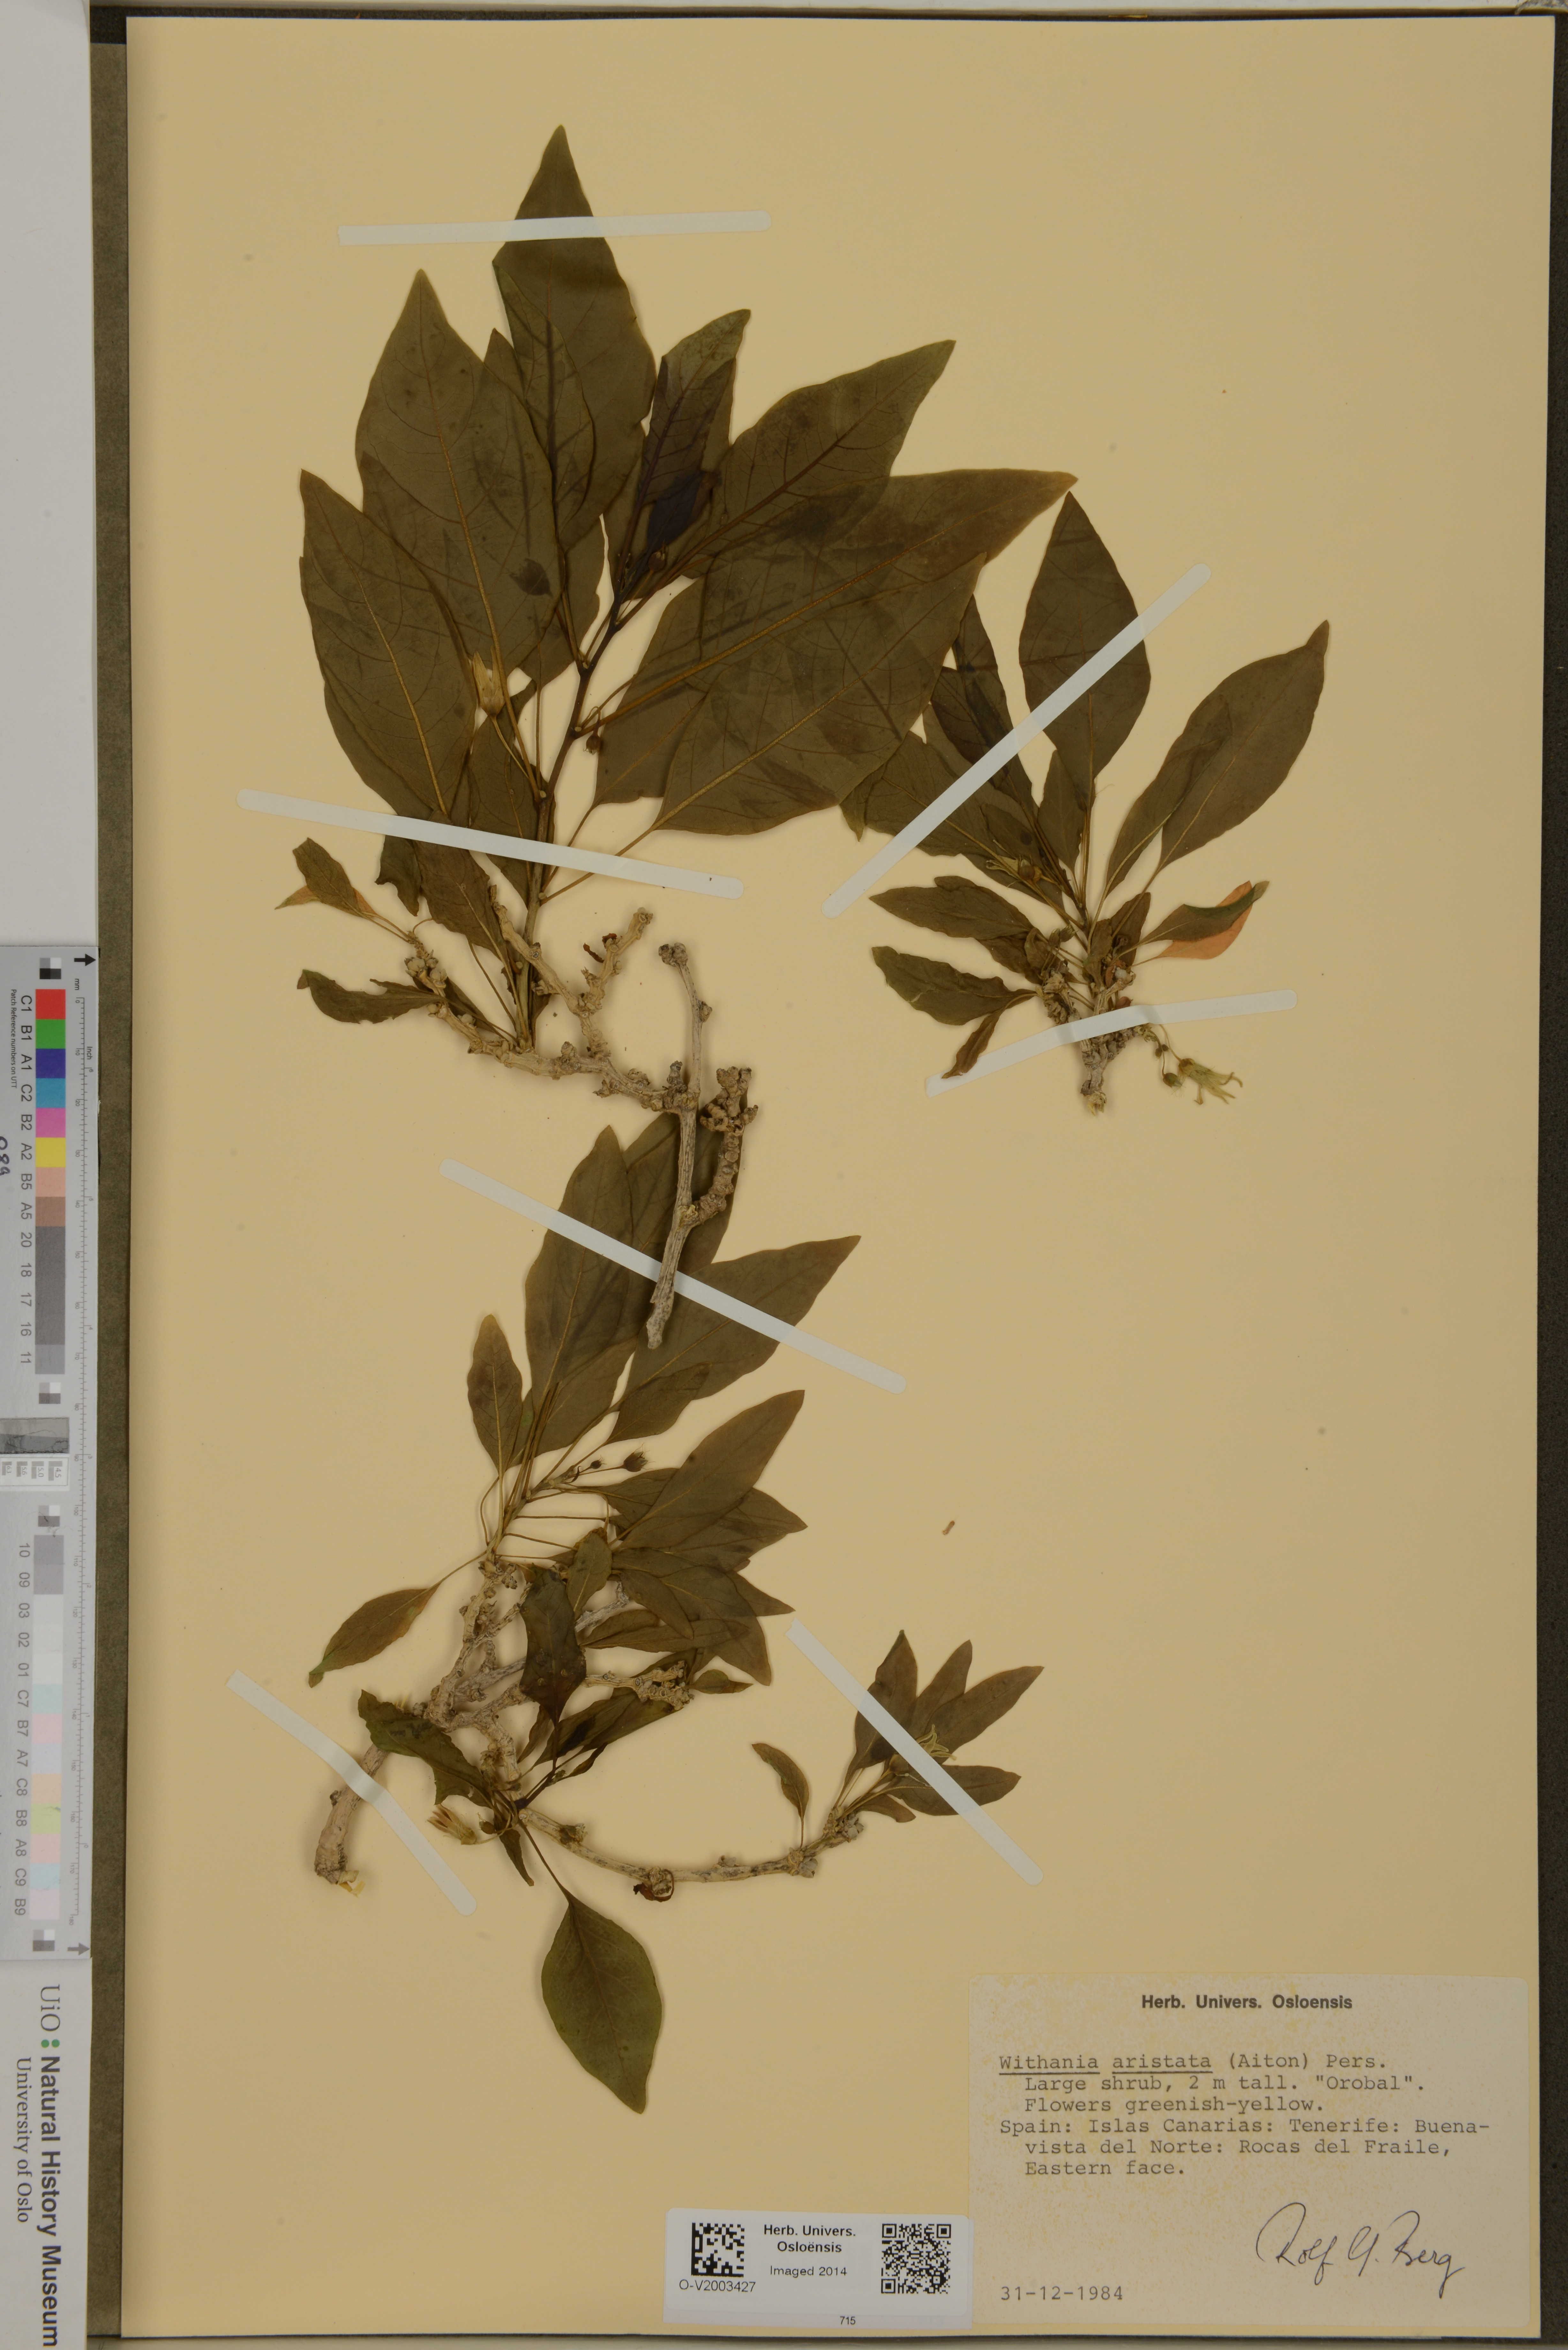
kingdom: Plantae
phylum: Tracheophyta
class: Magnoliopsida
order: Solanales
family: Solanaceae
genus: Withania
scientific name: Withania aristata
